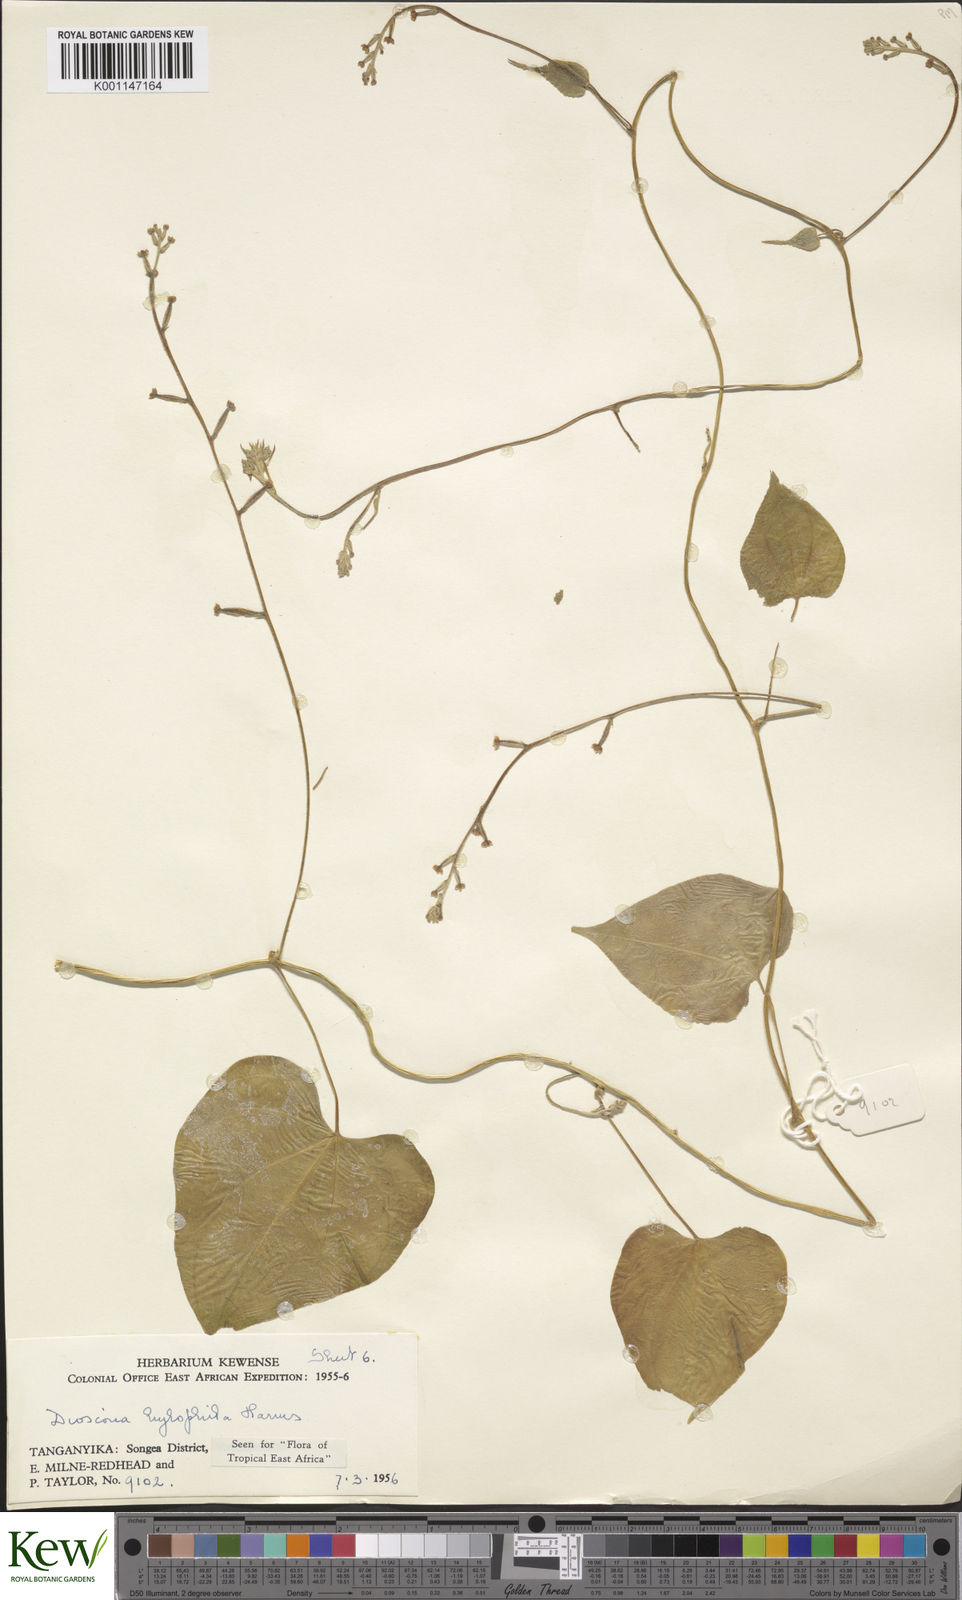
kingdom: Plantae
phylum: Tracheophyta
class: Liliopsida
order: Dioscoreales
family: Dioscoreaceae
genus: Dioscorea
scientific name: Dioscorea
